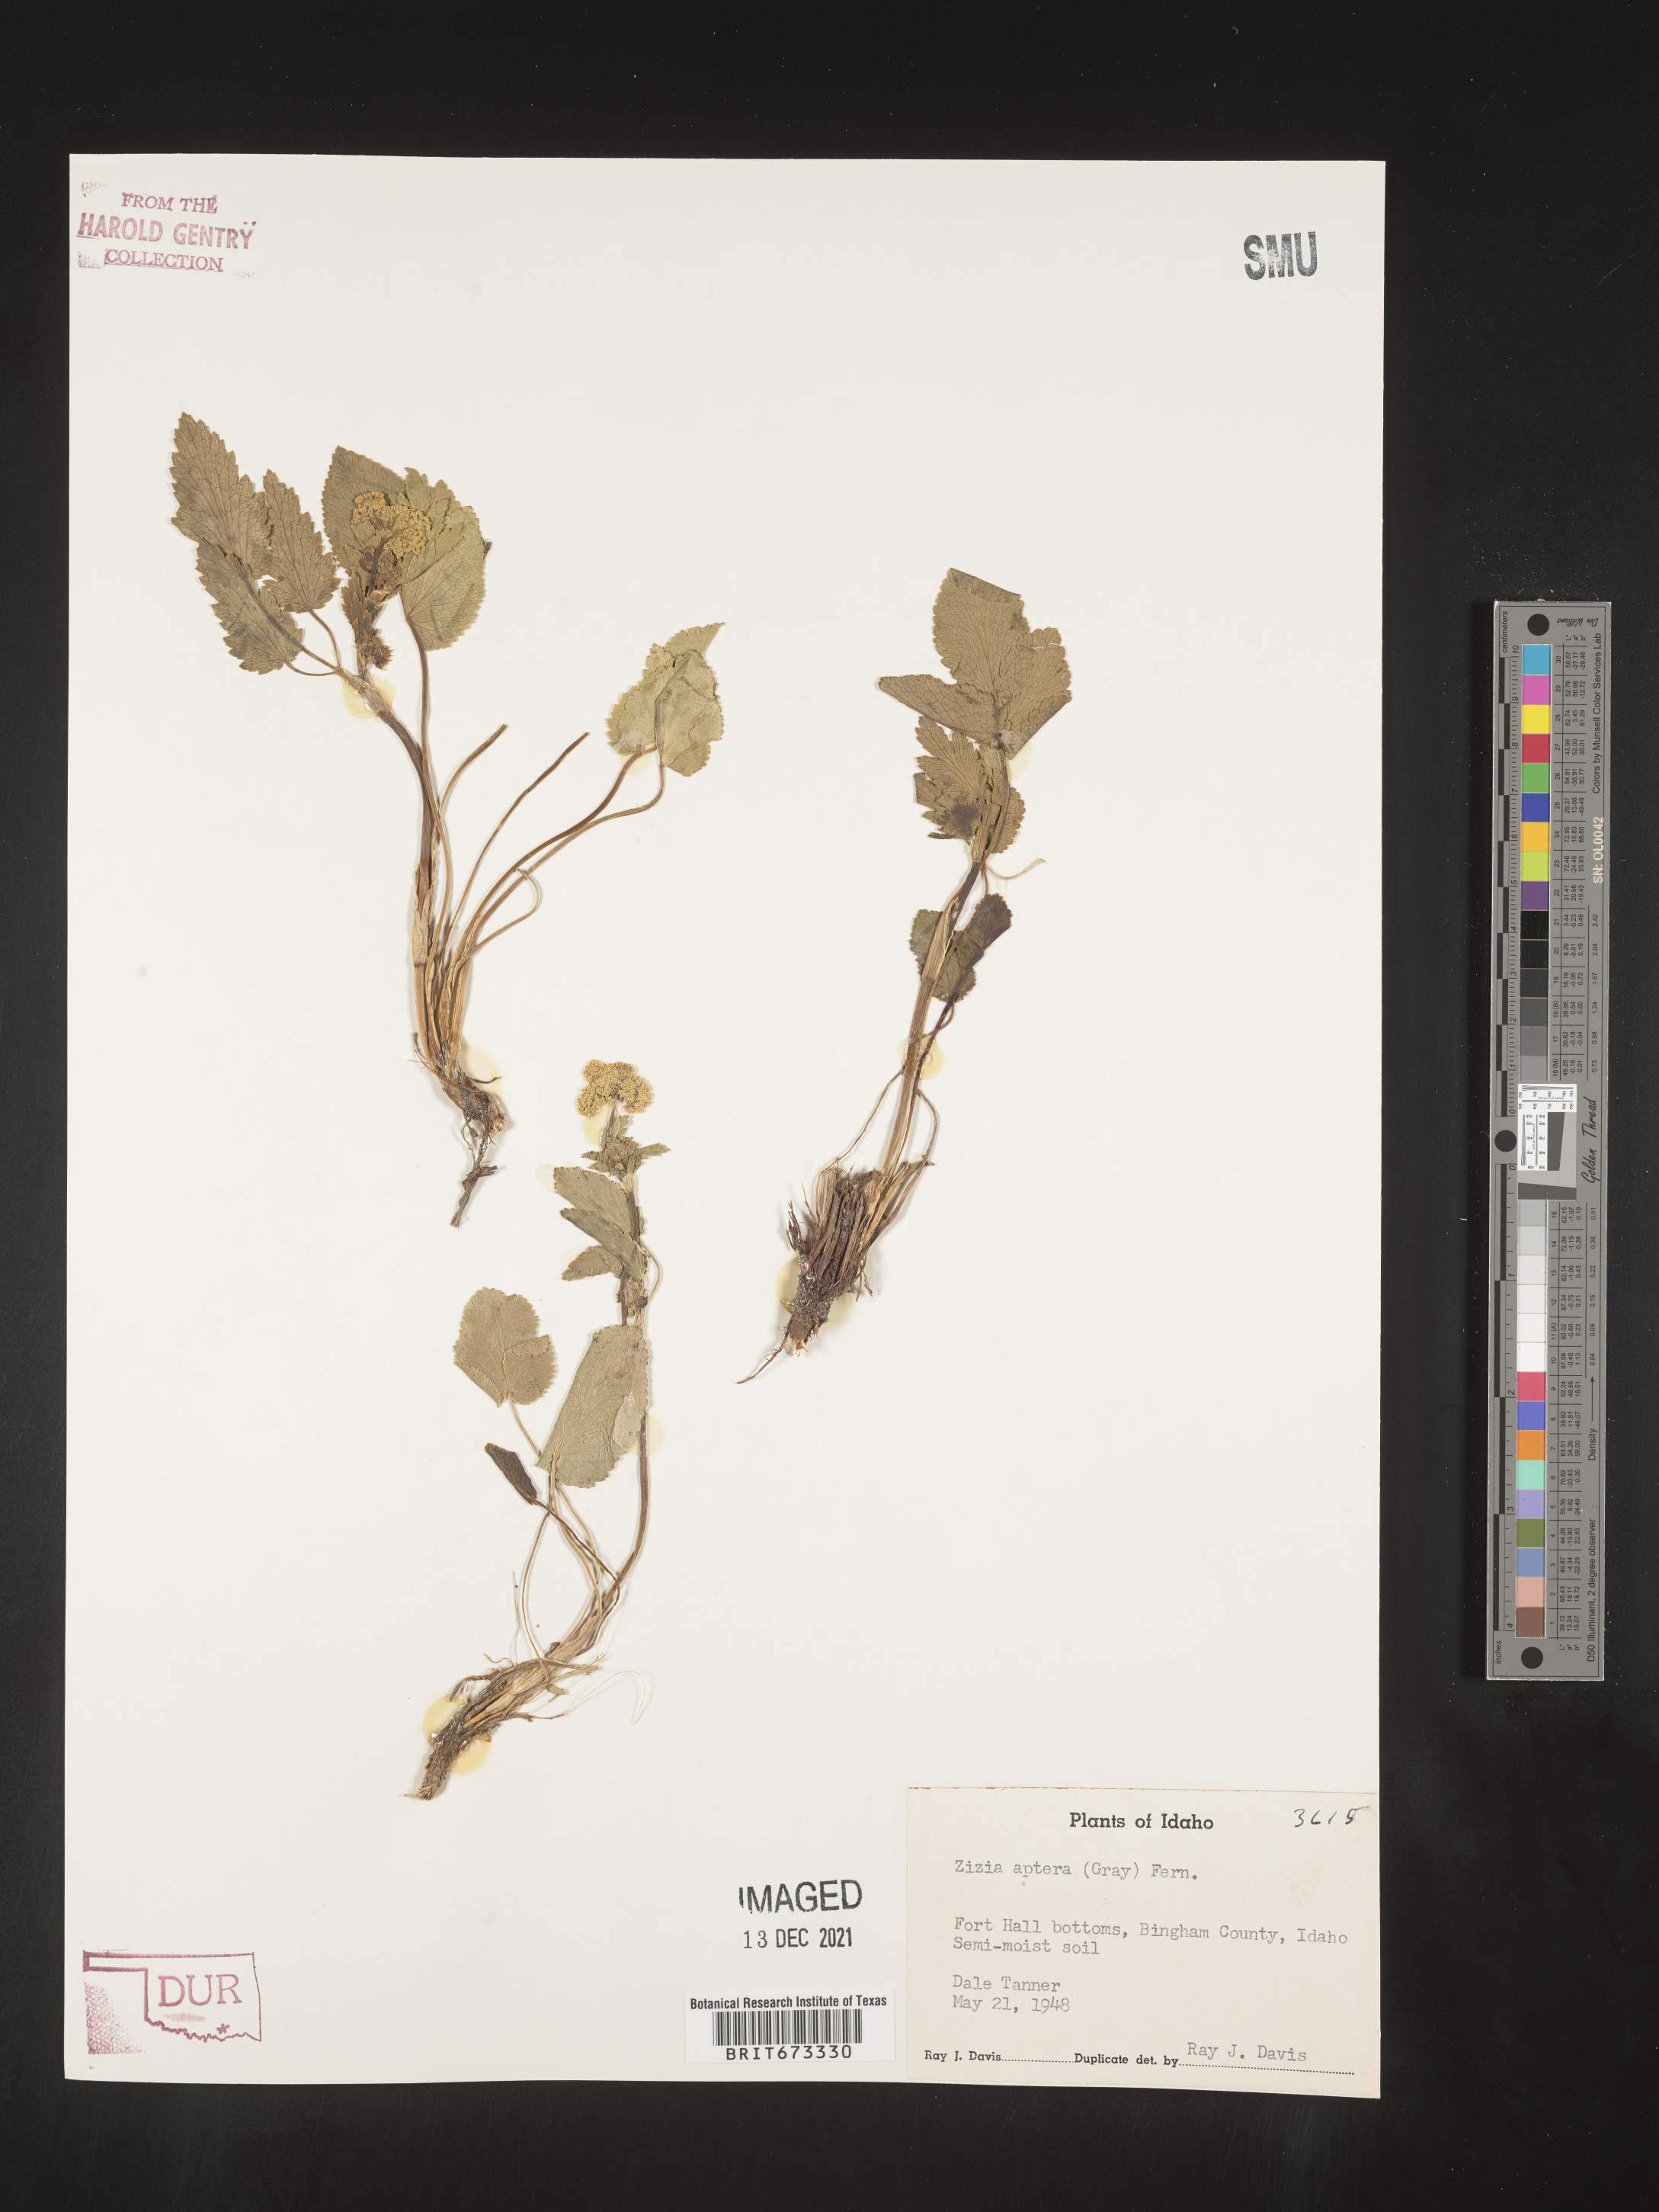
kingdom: Plantae
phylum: Tracheophyta
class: Magnoliopsida
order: Apiales
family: Apiaceae
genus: Zizia
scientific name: Zizia aptera
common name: Heart-leaved alexanders
